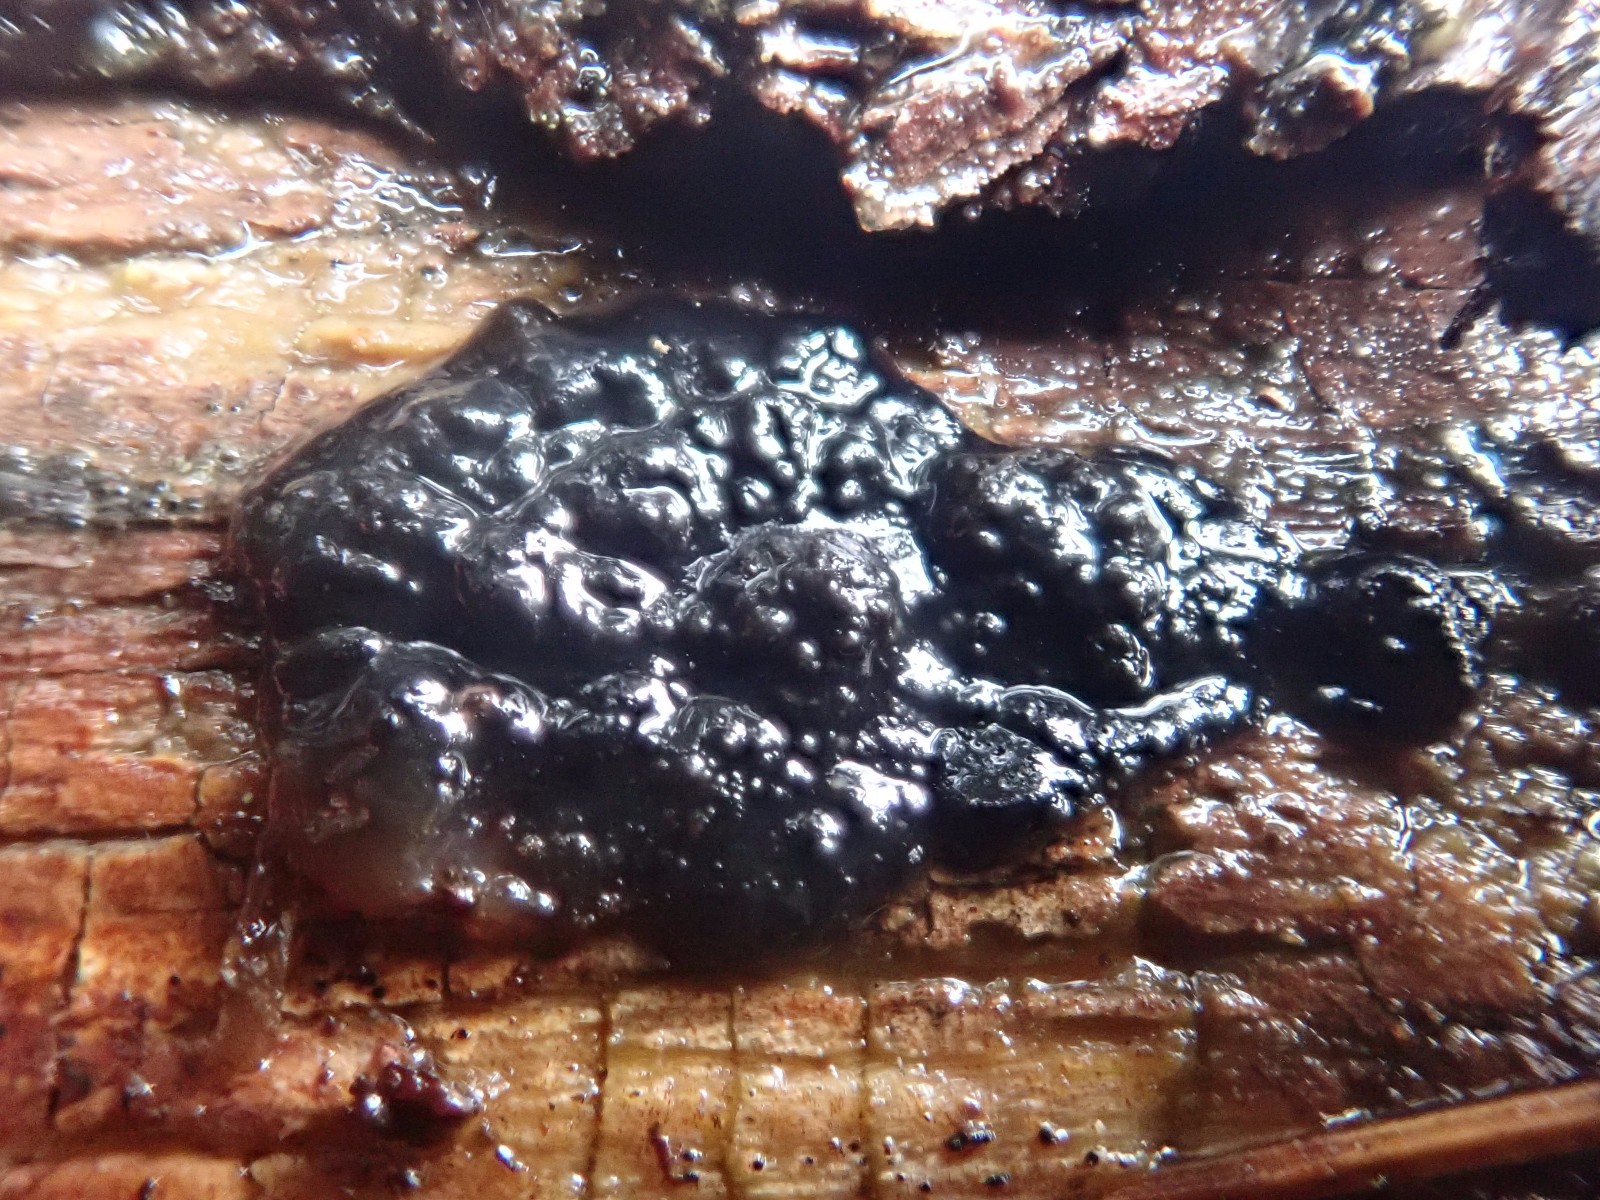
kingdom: Fungi
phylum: Basidiomycota
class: Agaricomycetes
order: Auriculariales
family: Auriculariaceae
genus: Exidia
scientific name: Exidia pithya
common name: gran-bævretop
